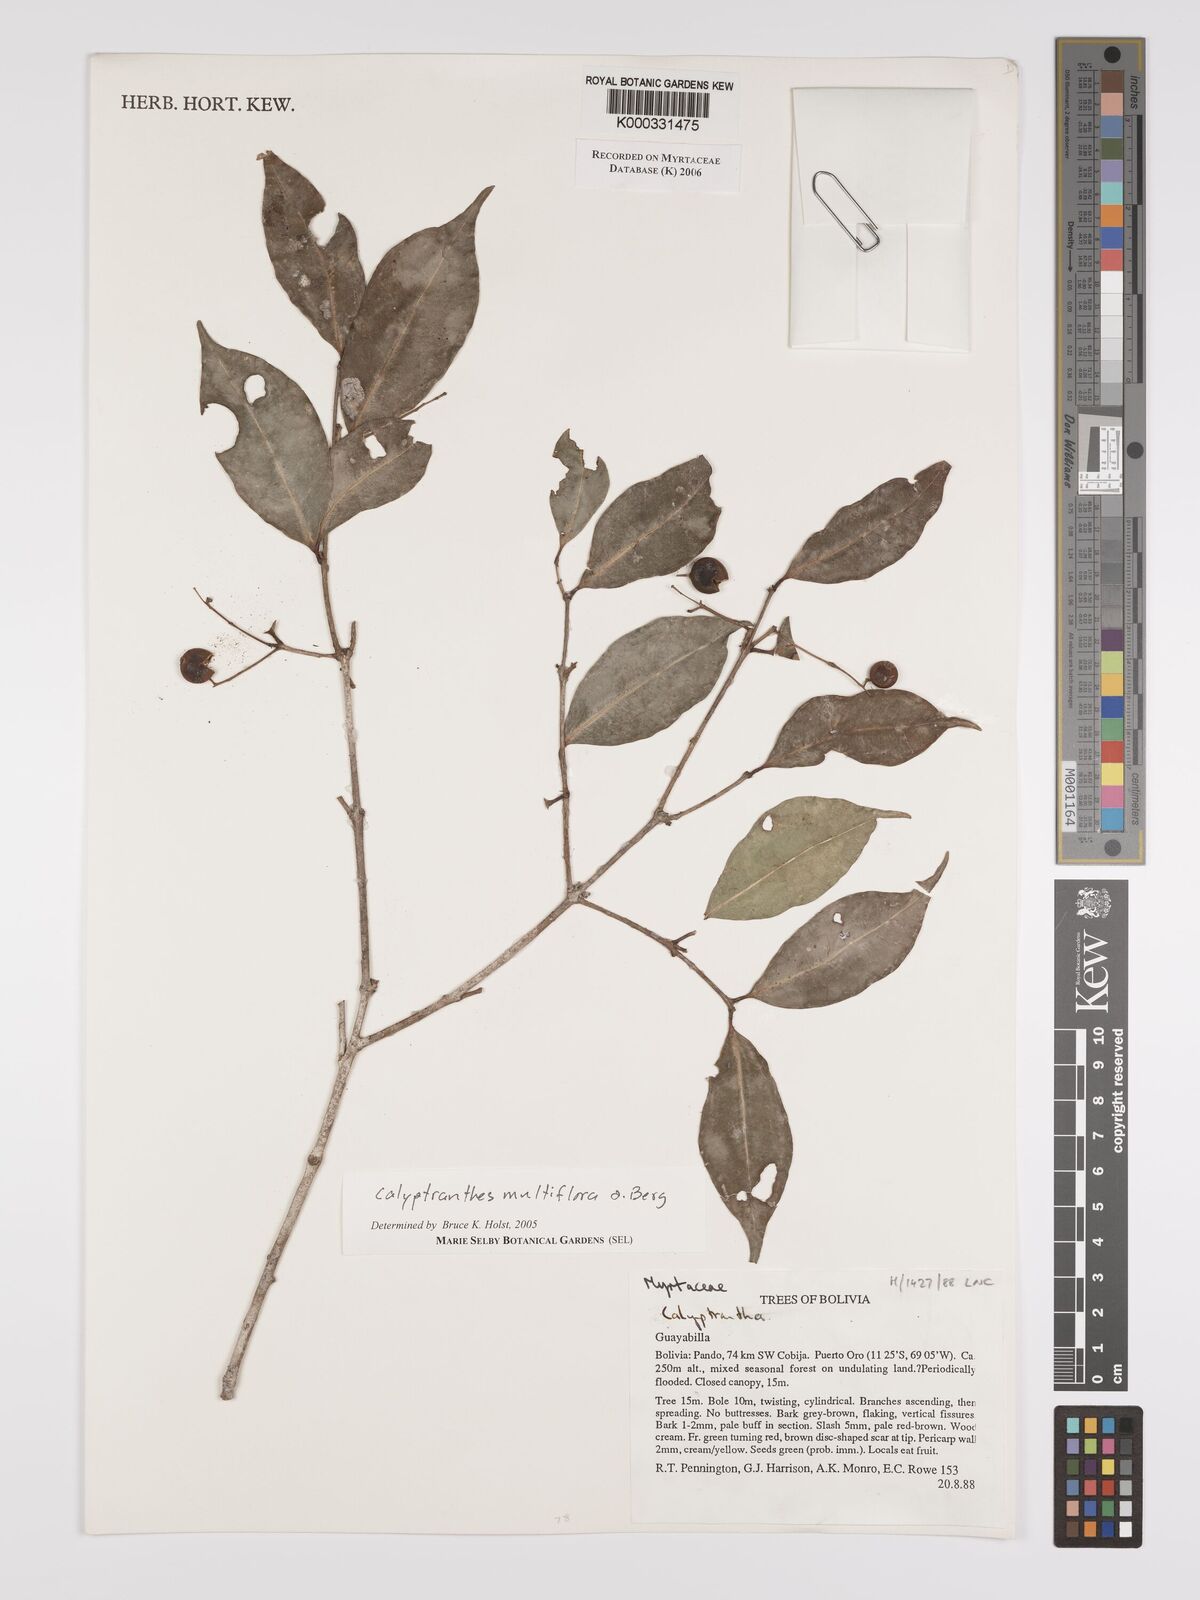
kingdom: Plantae
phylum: Tracheophyta
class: Magnoliopsida
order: Myrtales
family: Myrtaceae
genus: Myrcia
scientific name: Myrcia aulomyrcioides
